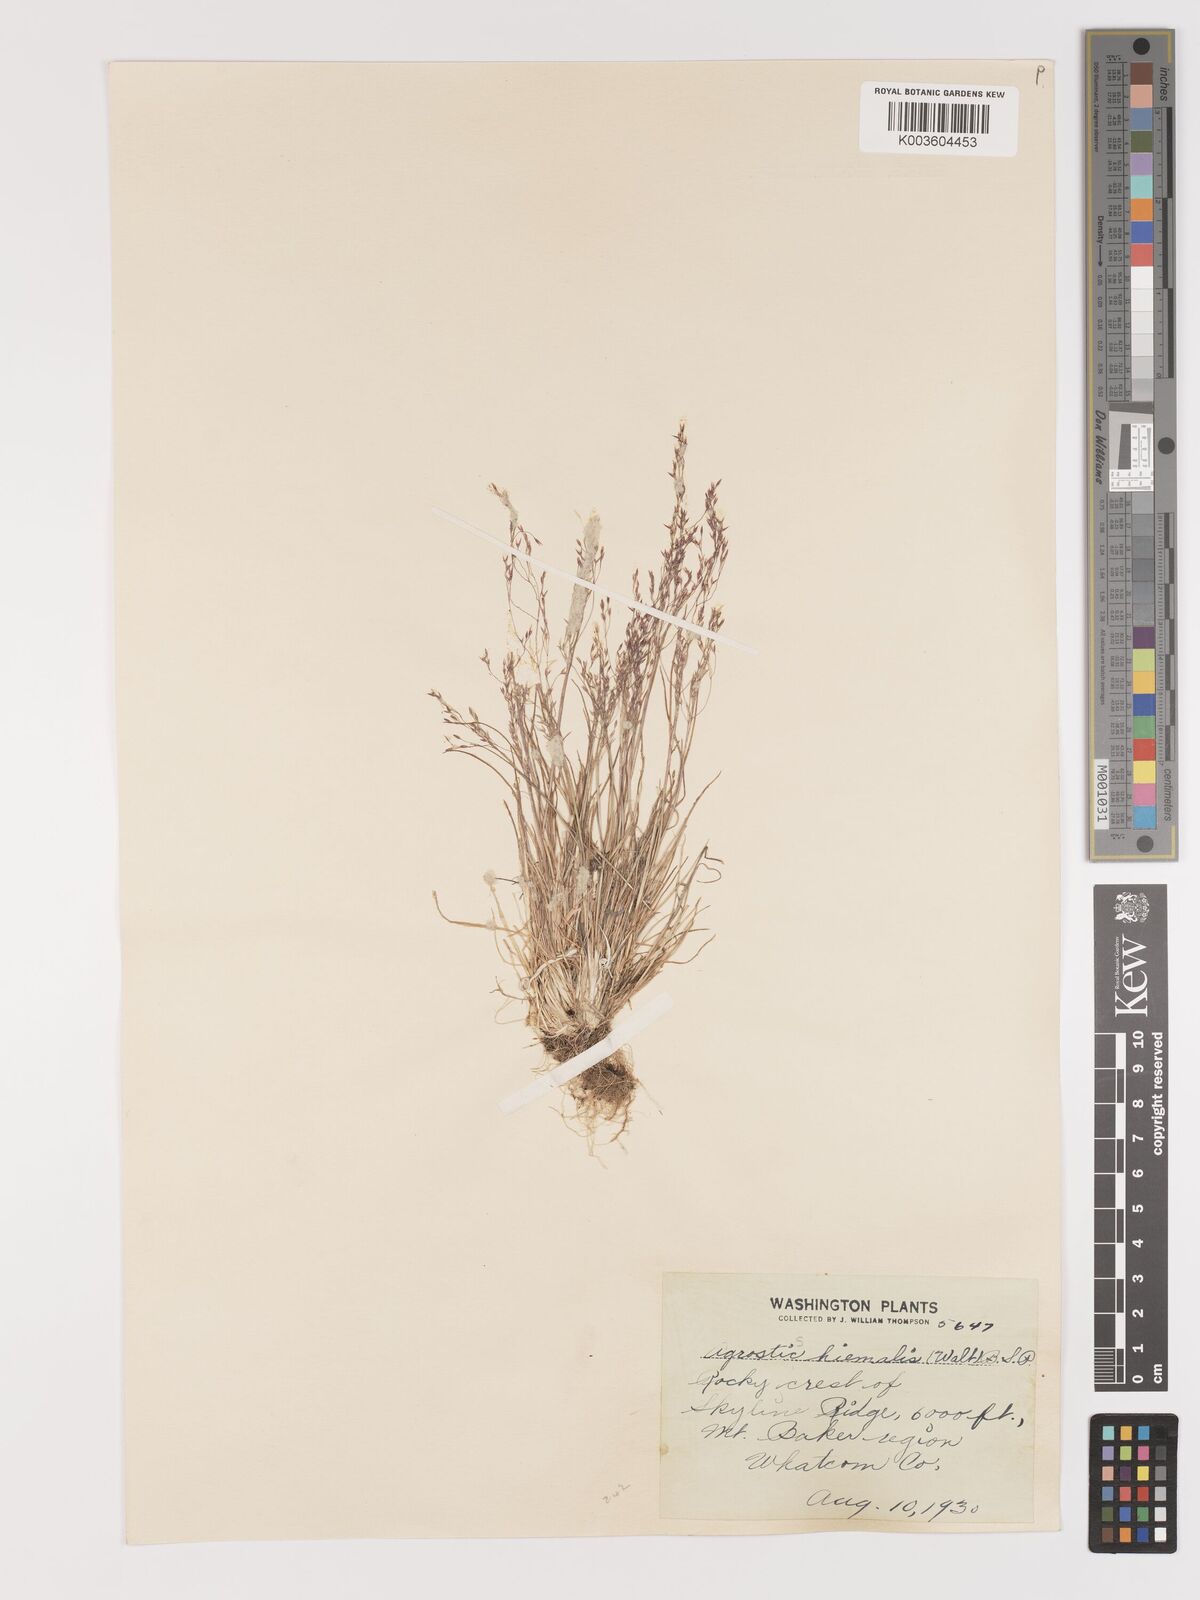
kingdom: Plantae
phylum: Tracheophyta
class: Liliopsida
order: Poales
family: Poaceae
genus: Agrostis
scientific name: Agrostis hyemalis
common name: Small bent
